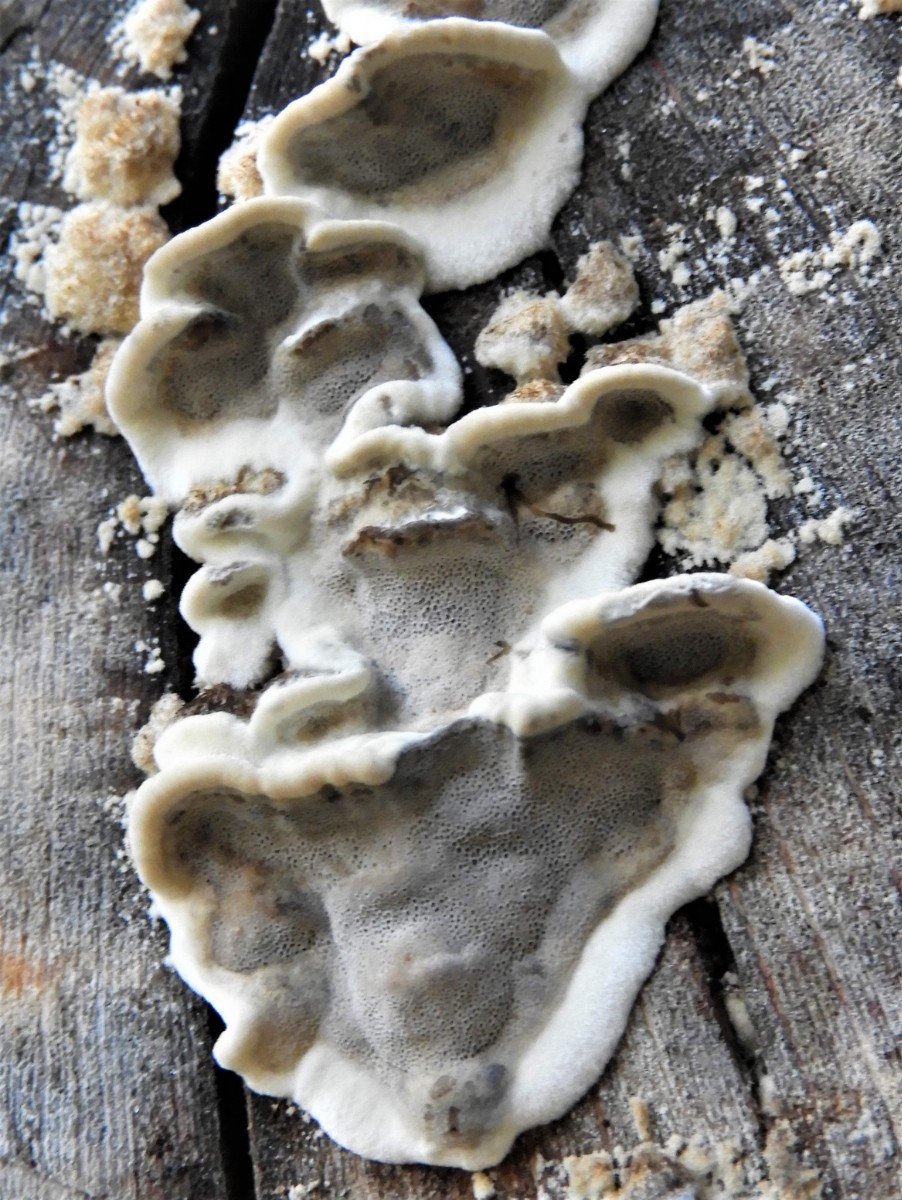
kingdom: Fungi
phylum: Basidiomycota
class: Agaricomycetes
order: Polyporales
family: Phanerochaetaceae
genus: Bjerkandera
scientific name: Bjerkandera adusta
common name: sveden sodporesvamp
